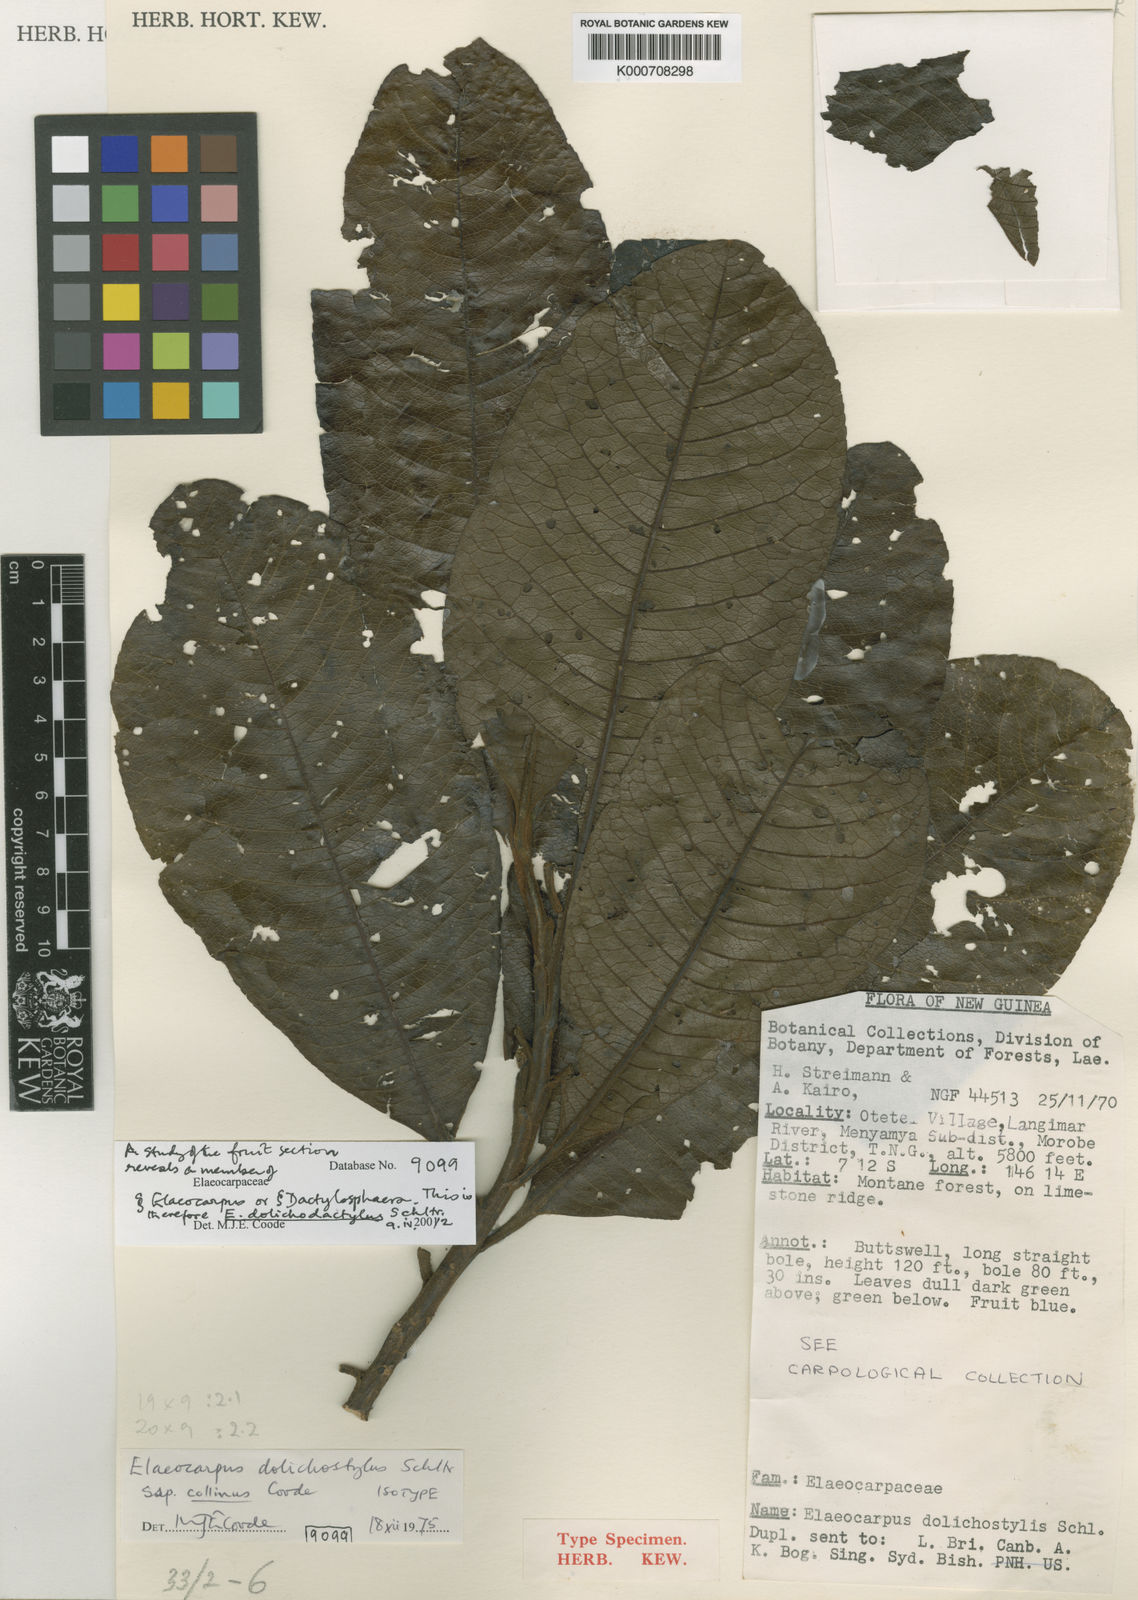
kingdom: Plantae
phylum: Tracheophyta
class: Magnoliopsida
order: Oxalidales
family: Elaeocarpaceae
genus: Elaeocarpus
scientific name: Elaeocarpus dolichodactylus
